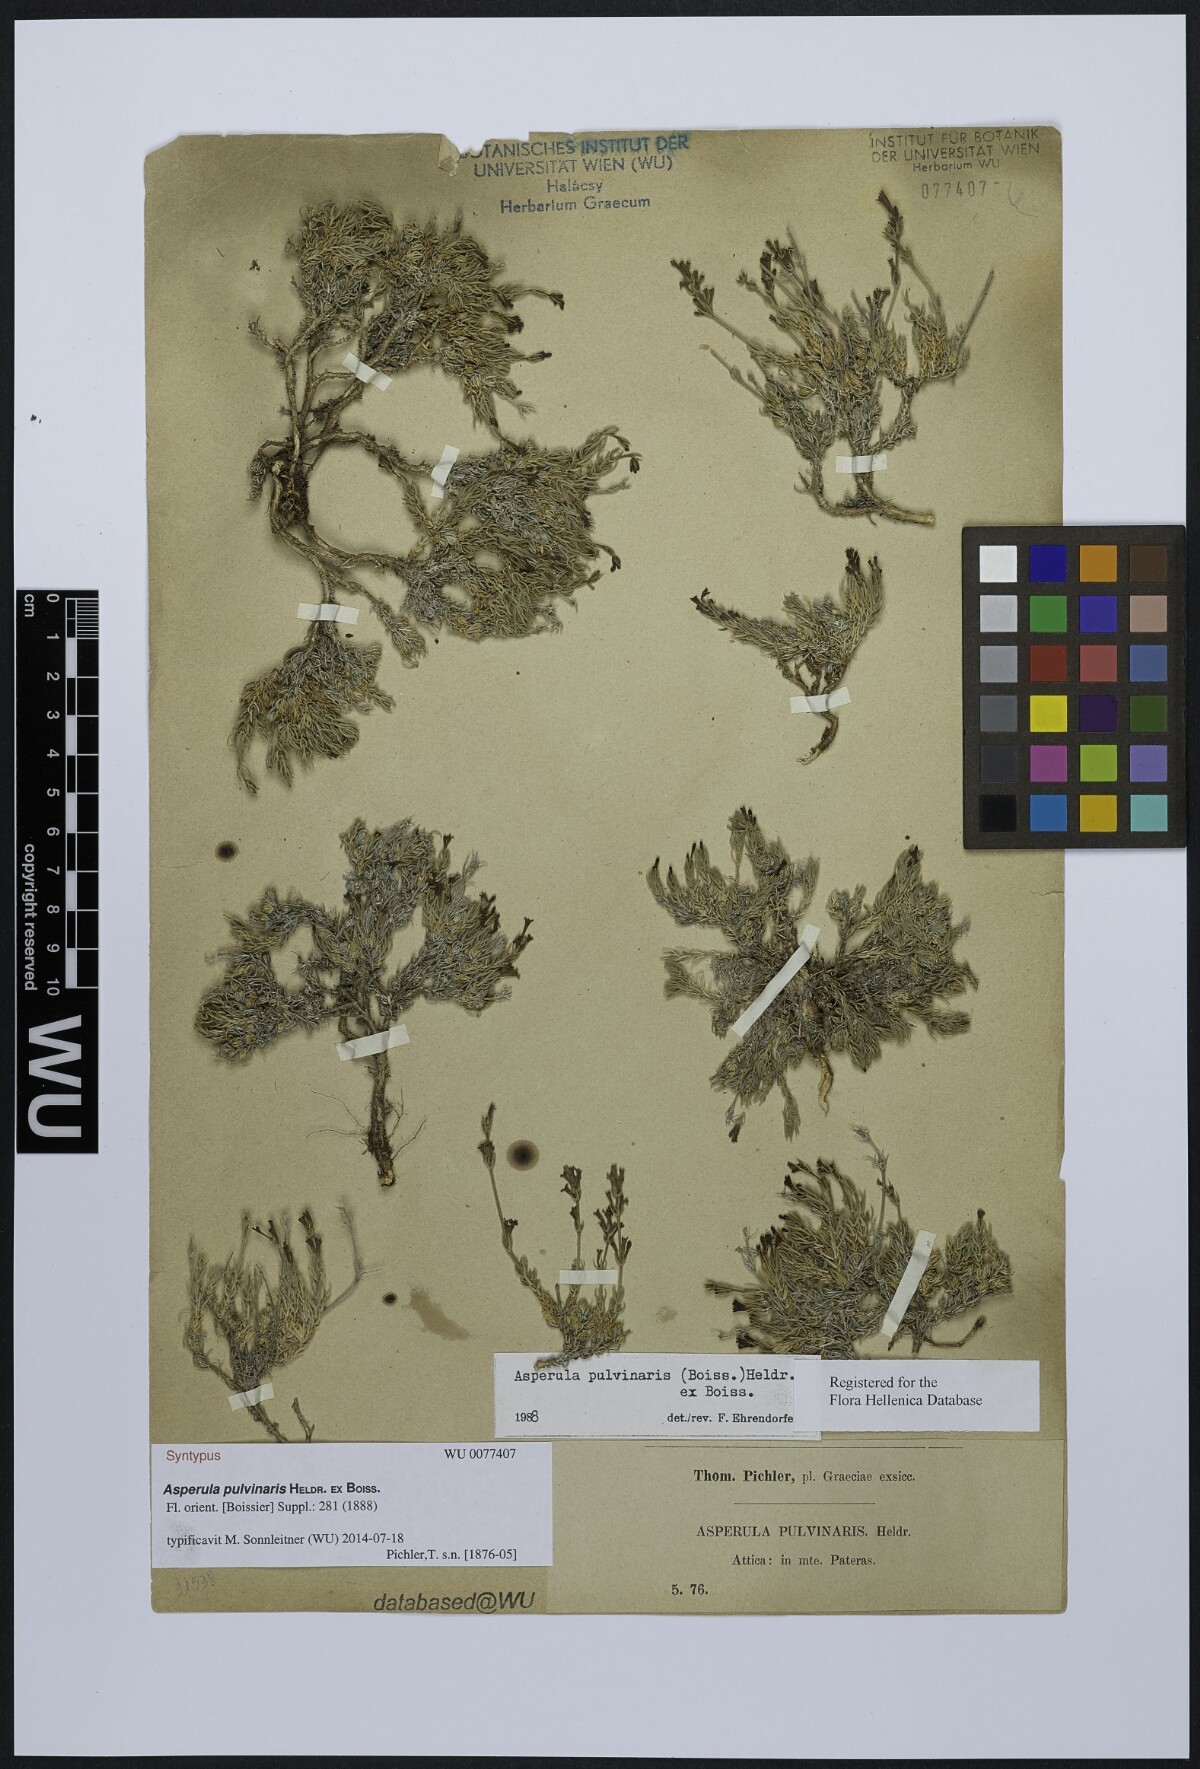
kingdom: Plantae
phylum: Tracheophyta
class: Magnoliopsida
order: Gentianales
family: Rubiaceae
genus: Cynanchica
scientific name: Cynanchica pulvinaris
